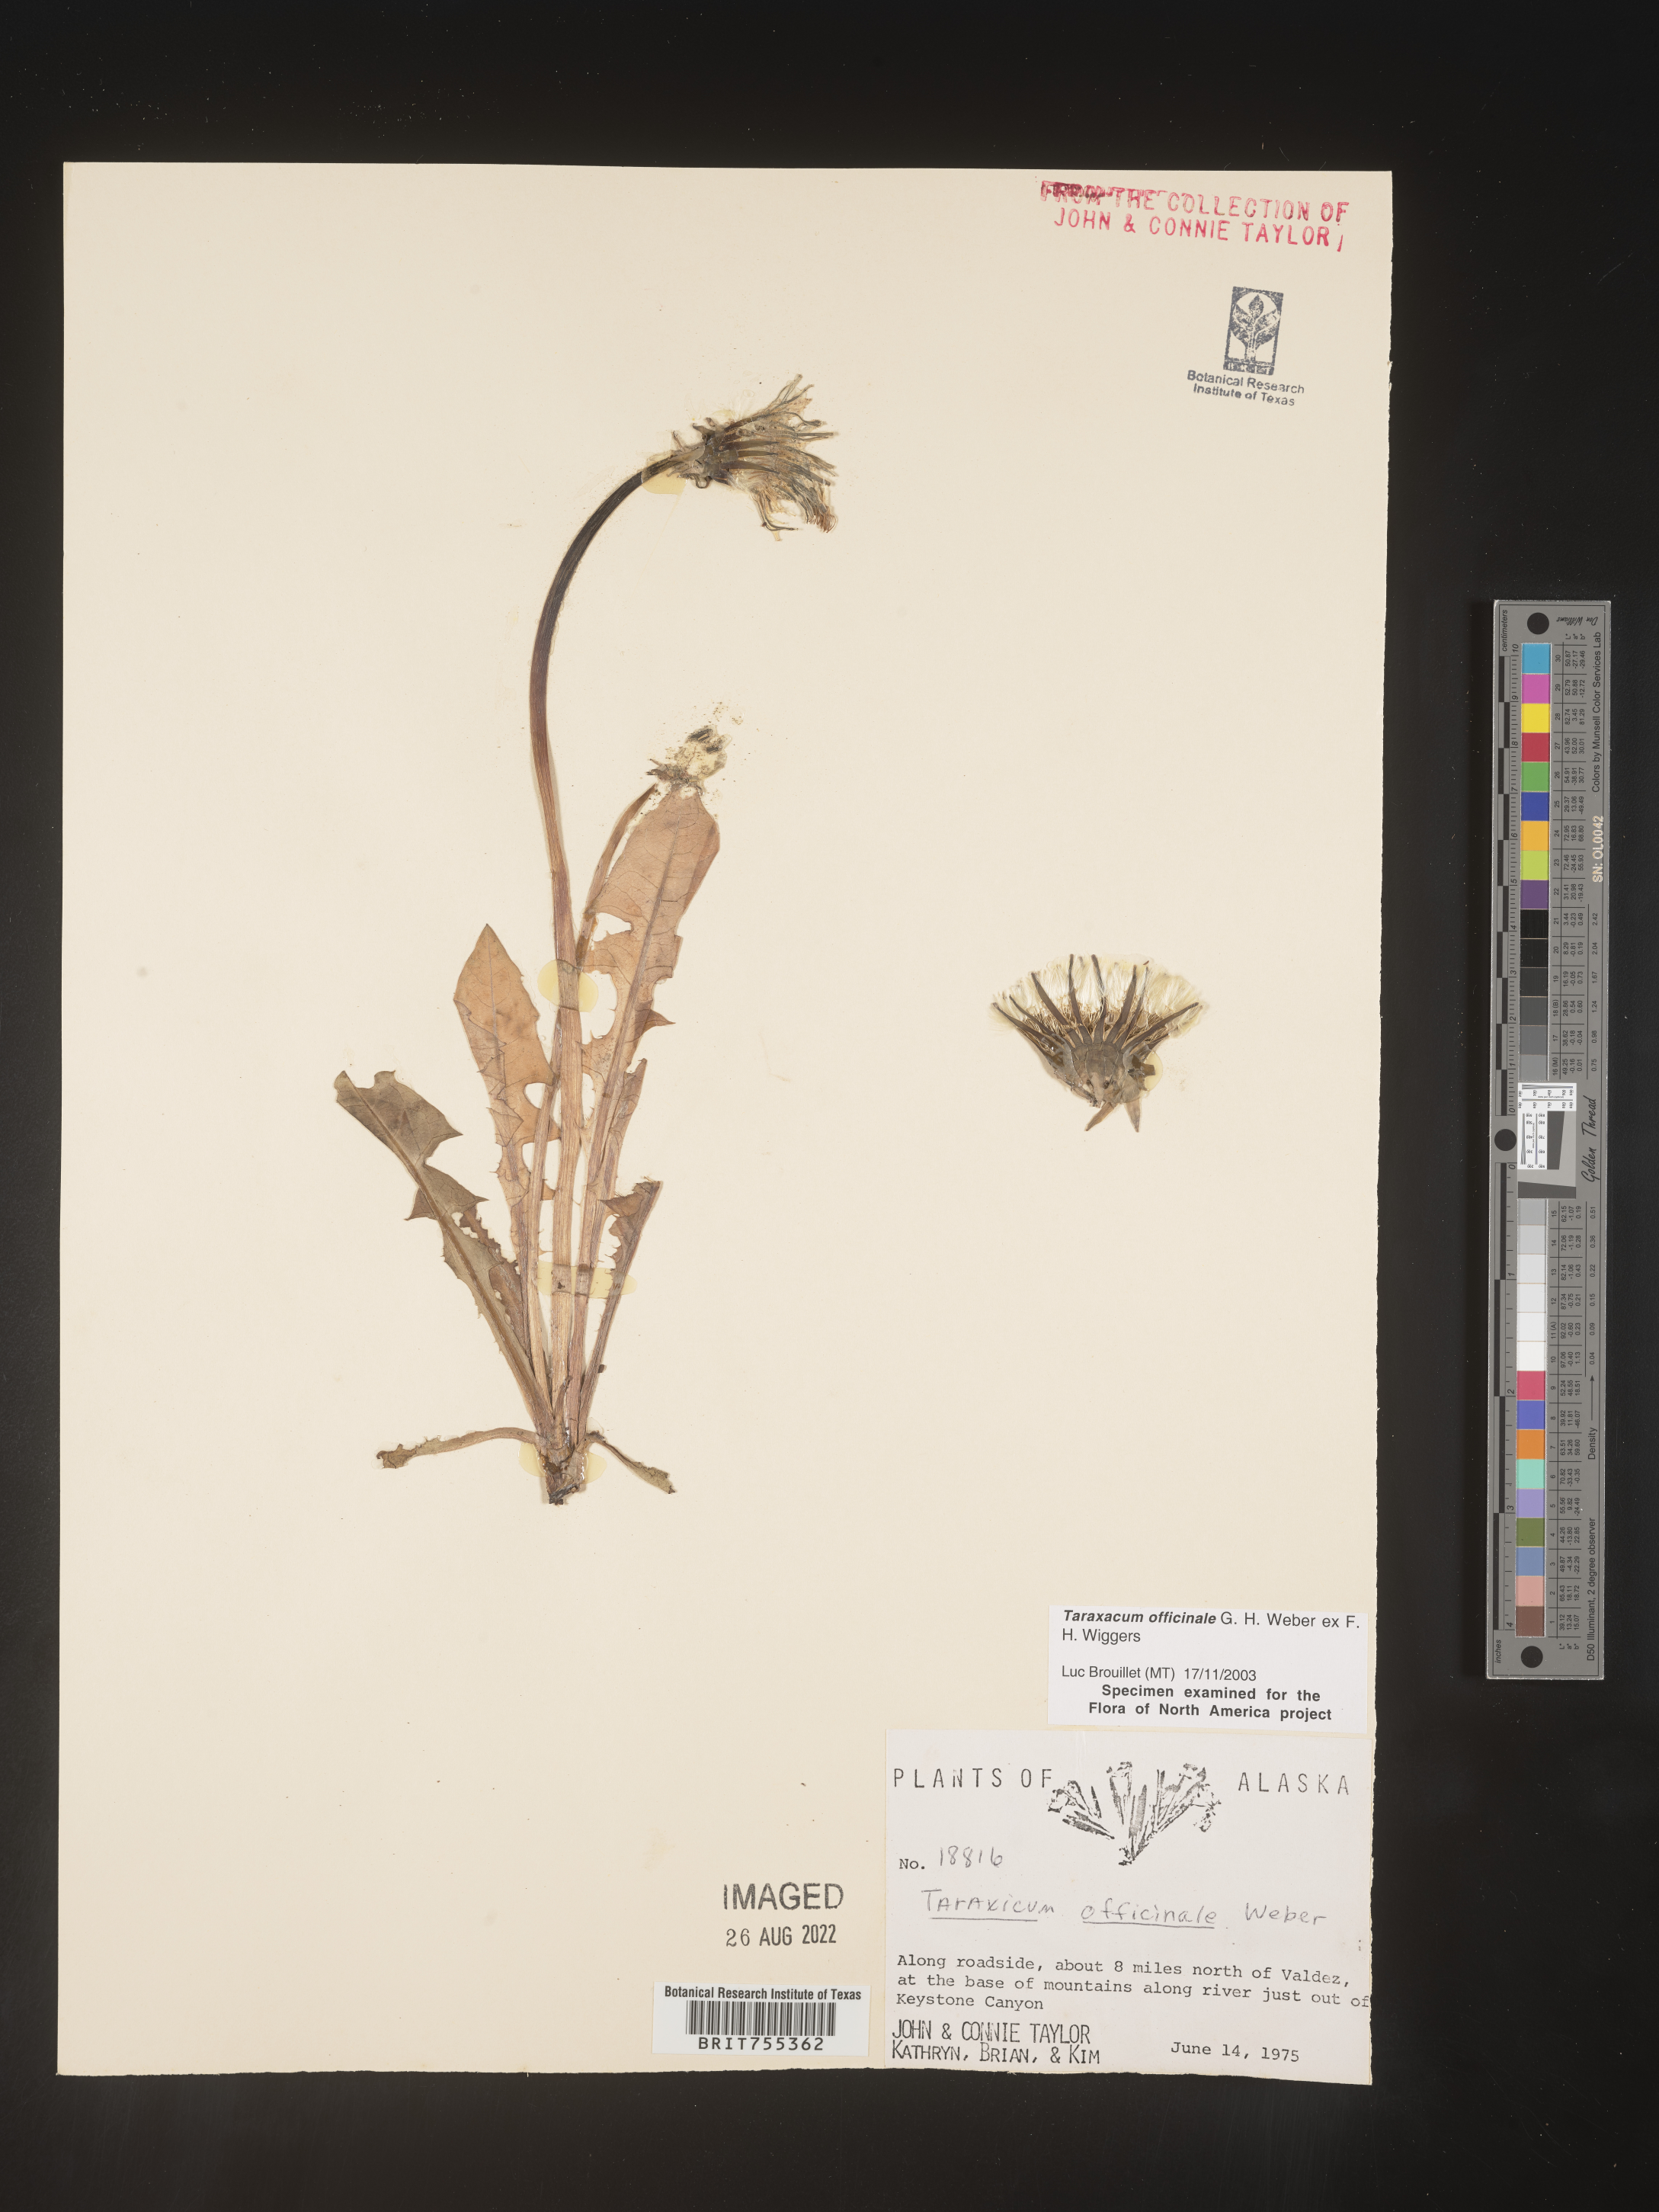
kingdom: Plantae
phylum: Tracheophyta
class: Magnoliopsida
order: Asterales
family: Asteraceae
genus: Taraxacum
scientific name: Taraxacum officinale
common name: Common dandelion
